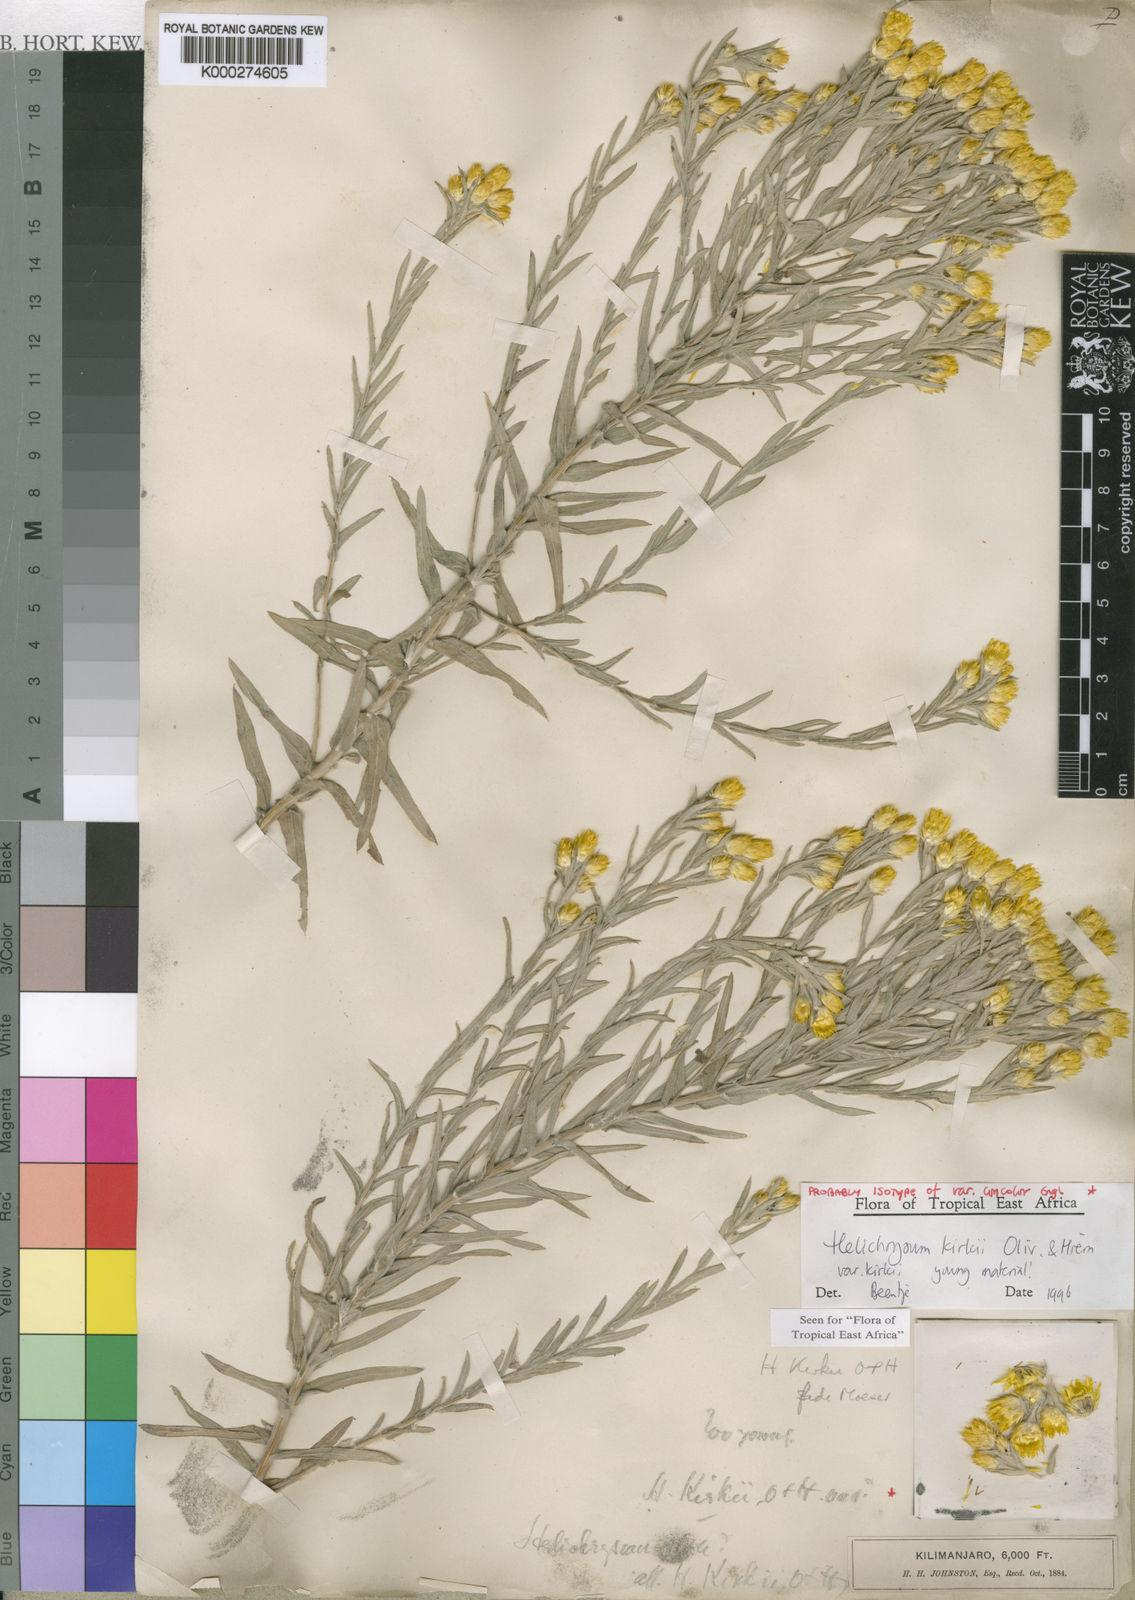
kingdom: Plantae
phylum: Tracheophyta
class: Magnoliopsida
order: Asterales
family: Asteraceae
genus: Helichrysum
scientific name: Helichrysum kirkii
